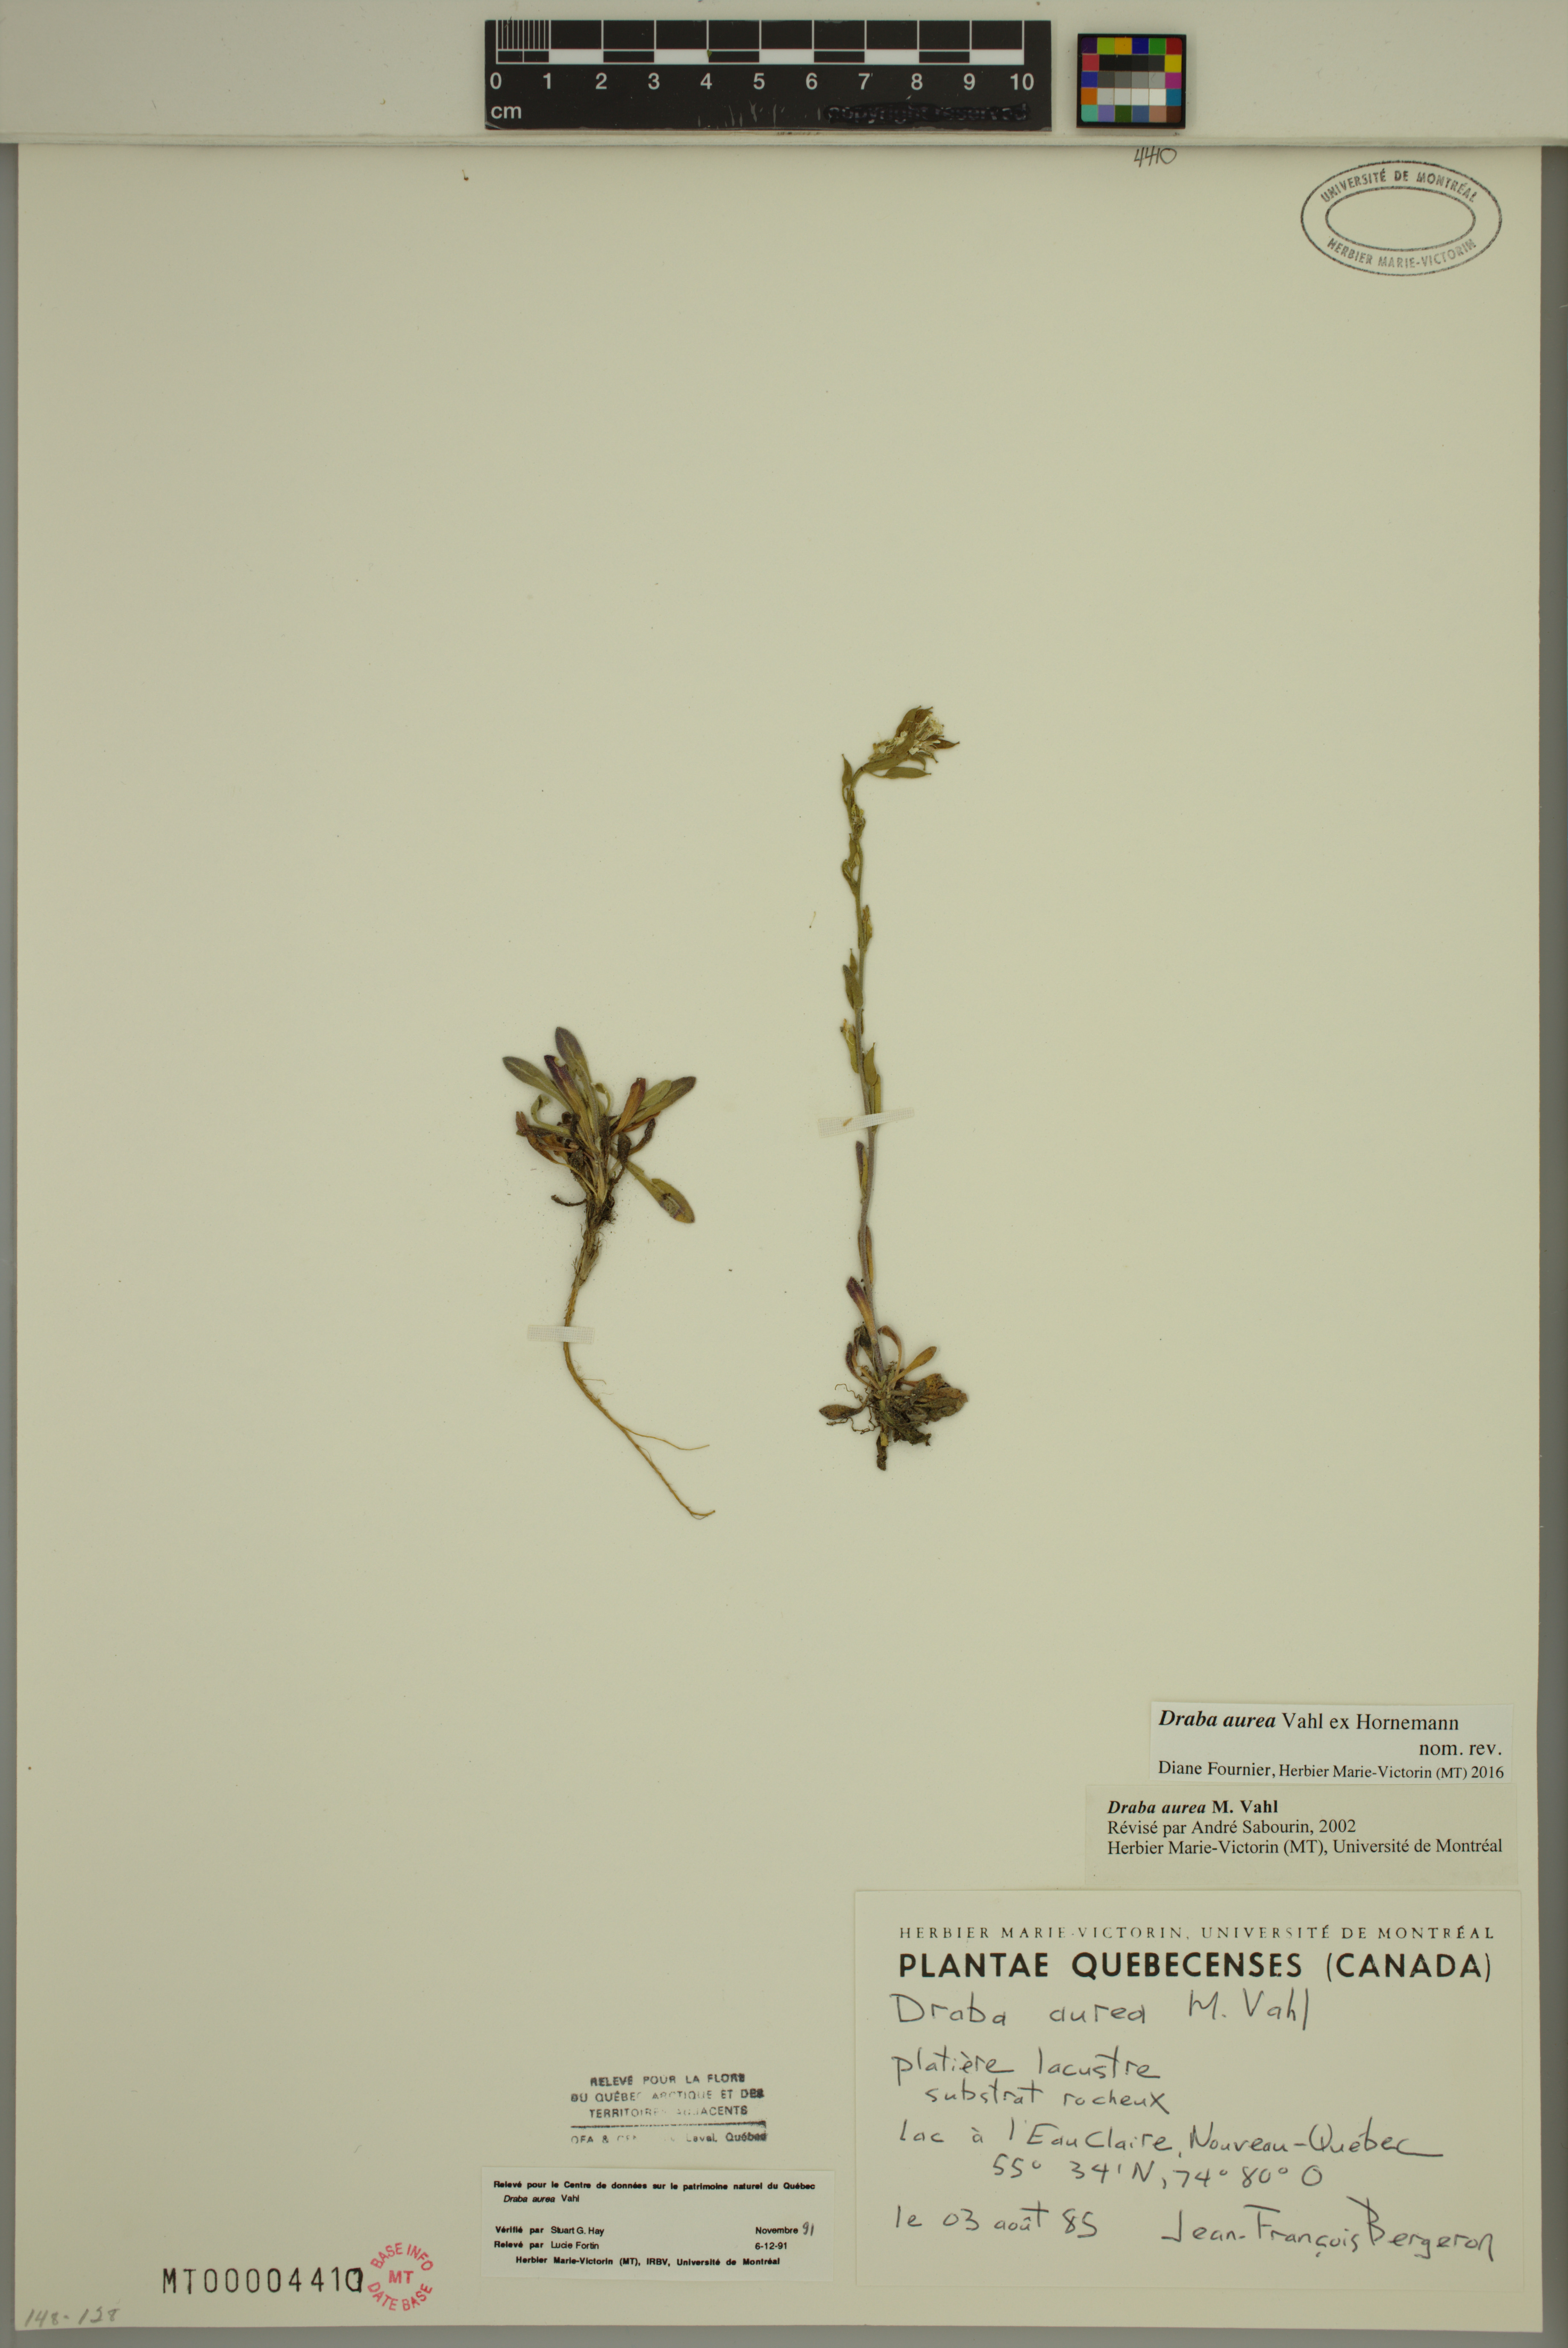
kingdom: Plantae
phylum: Tracheophyta
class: Magnoliopsida
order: Brassicales
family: Brassicaceae
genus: Draba
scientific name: Draba aurea
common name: Golden draba
